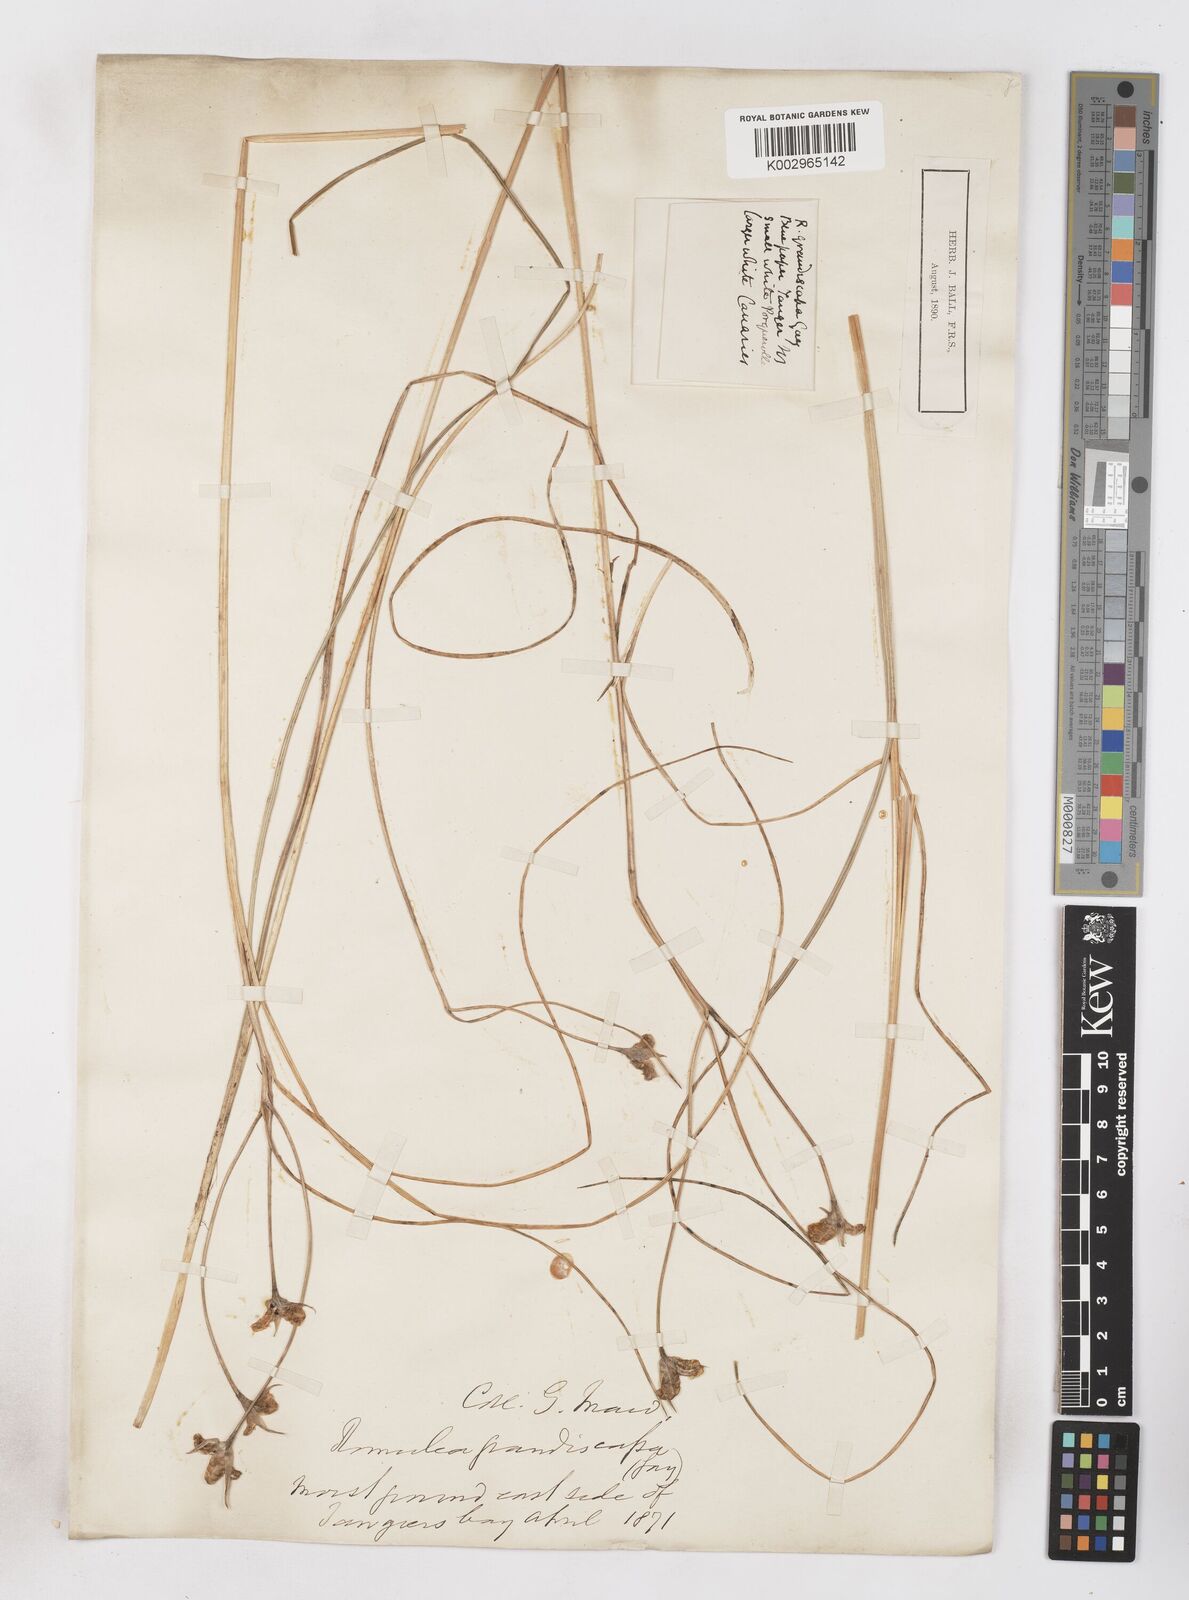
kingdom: Plantae
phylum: Tracheophyta
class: Liliopsida
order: Asparagales
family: Iridaceae
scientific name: Iridaceae
